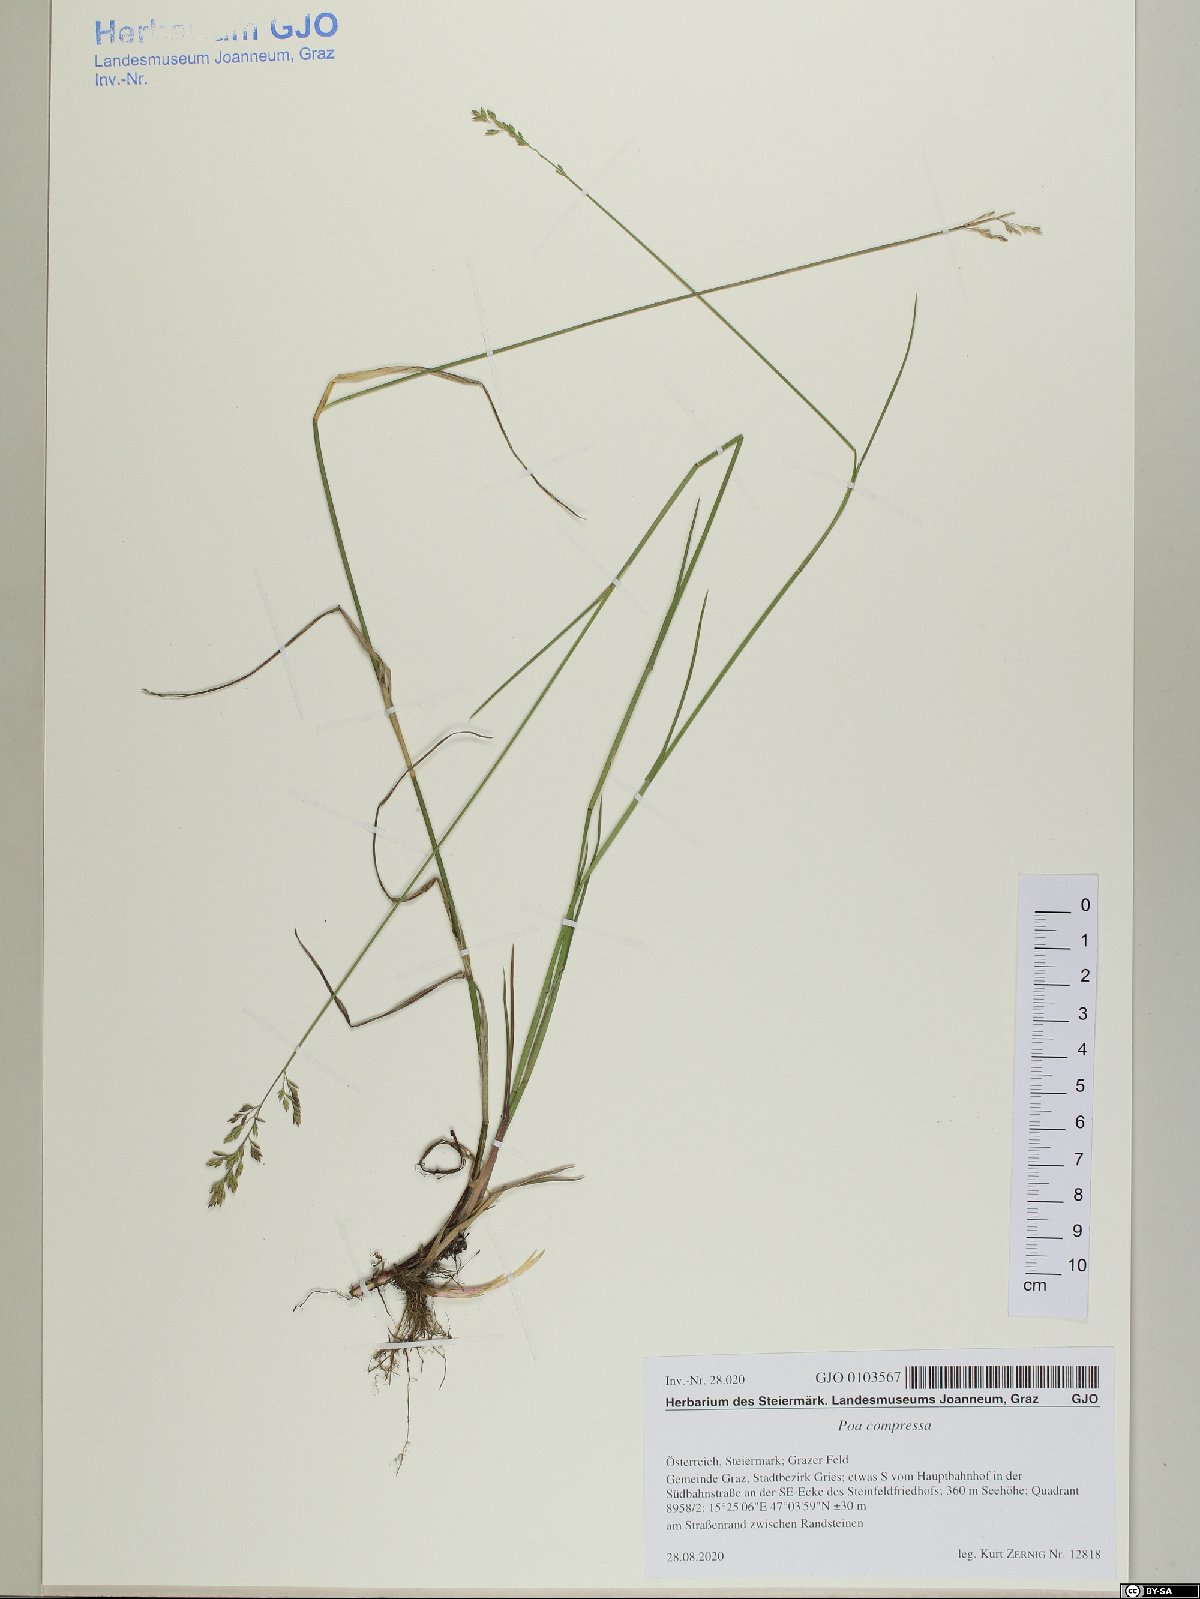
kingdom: Plantae
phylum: Tracheophyta
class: Liliopsida
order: Poales
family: Poaceae
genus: Poa
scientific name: Poa compressa
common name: Canada bluegrass
